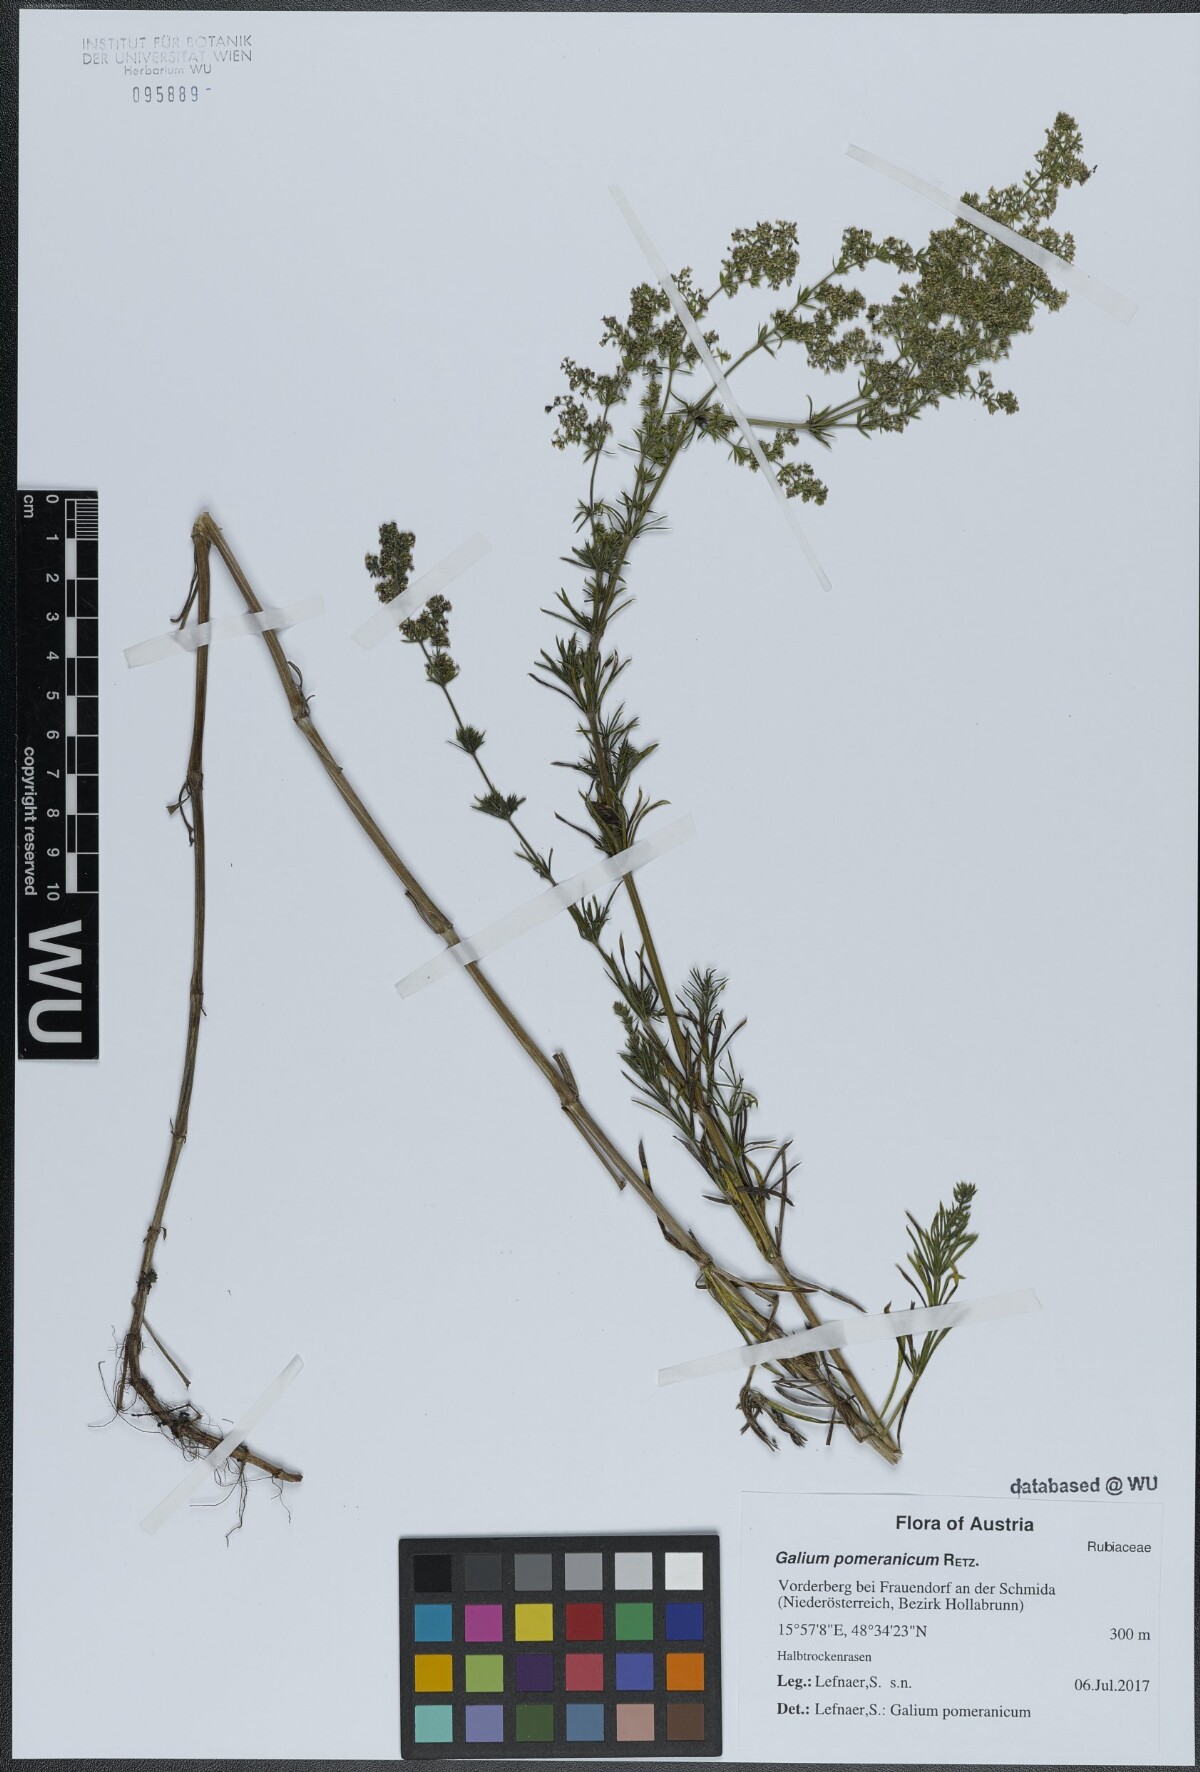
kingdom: Plantae
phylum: Tracheophyta
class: Magnoliopsida
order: Gentianales
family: Rubiaceae
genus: Galium
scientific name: Galium pomeranicum
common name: Bedstraw
